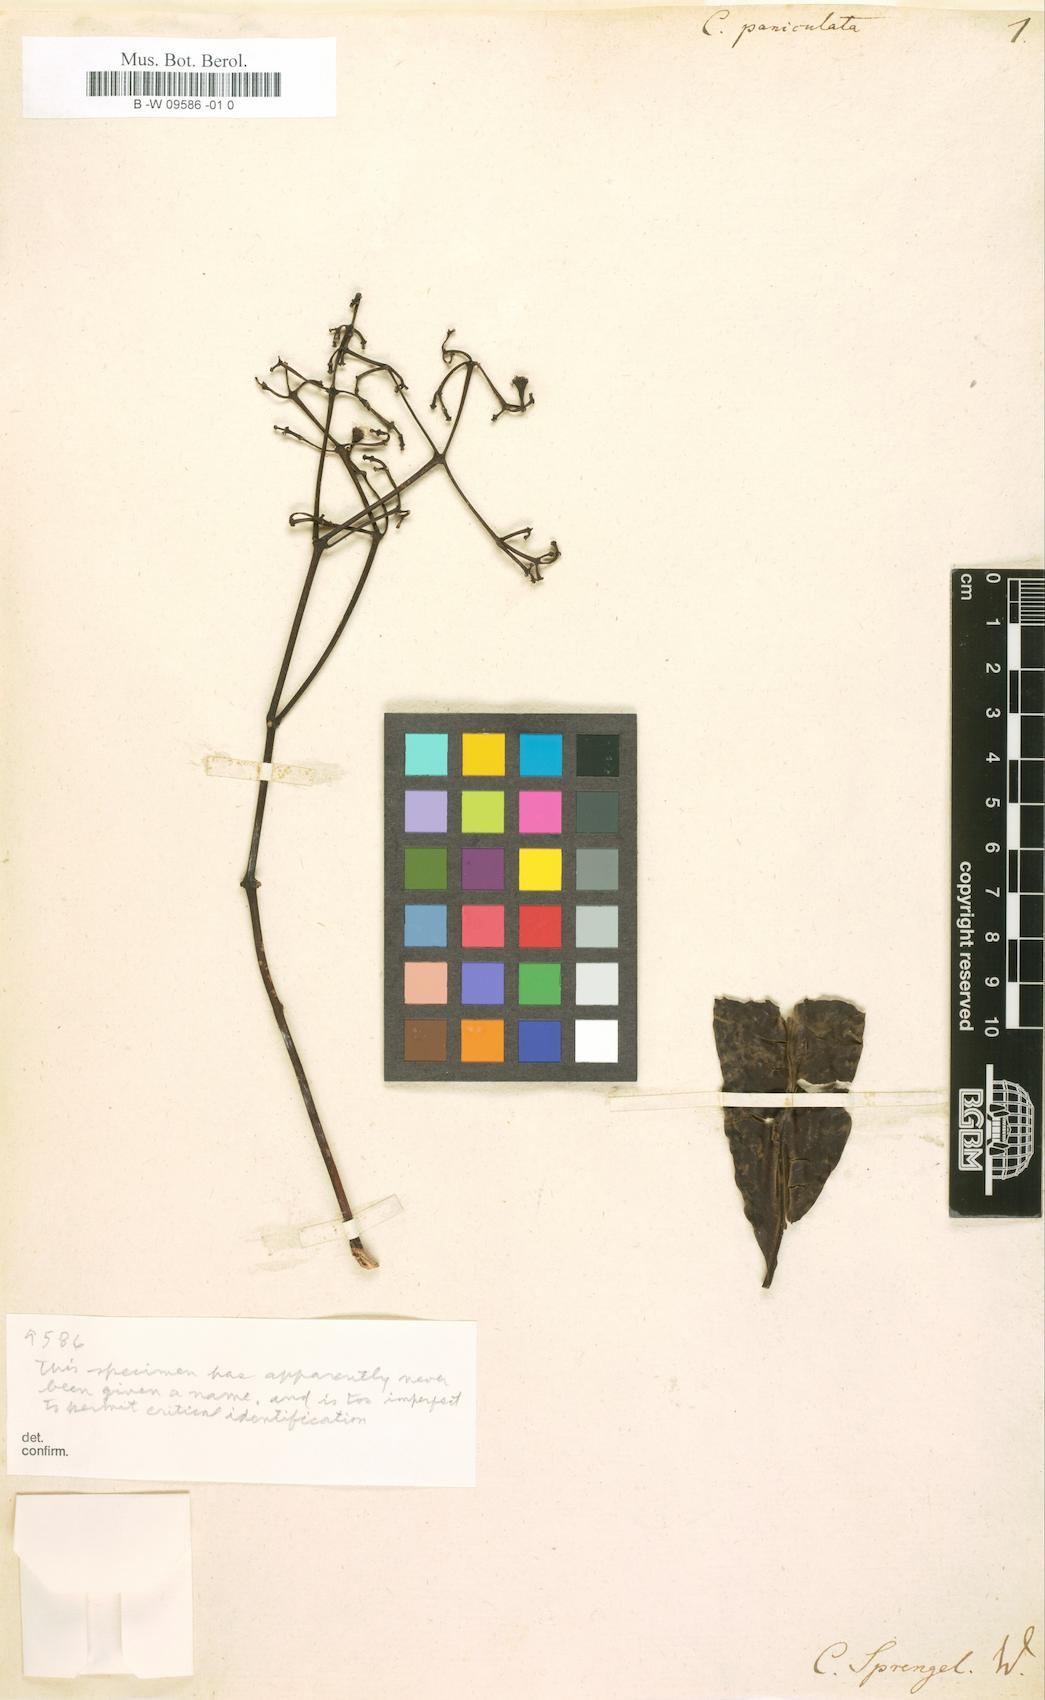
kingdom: Plantae
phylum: Tracheophyta
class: Magnoliopsida
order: Myrtales
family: Myrtaceae
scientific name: Myrtaceae
